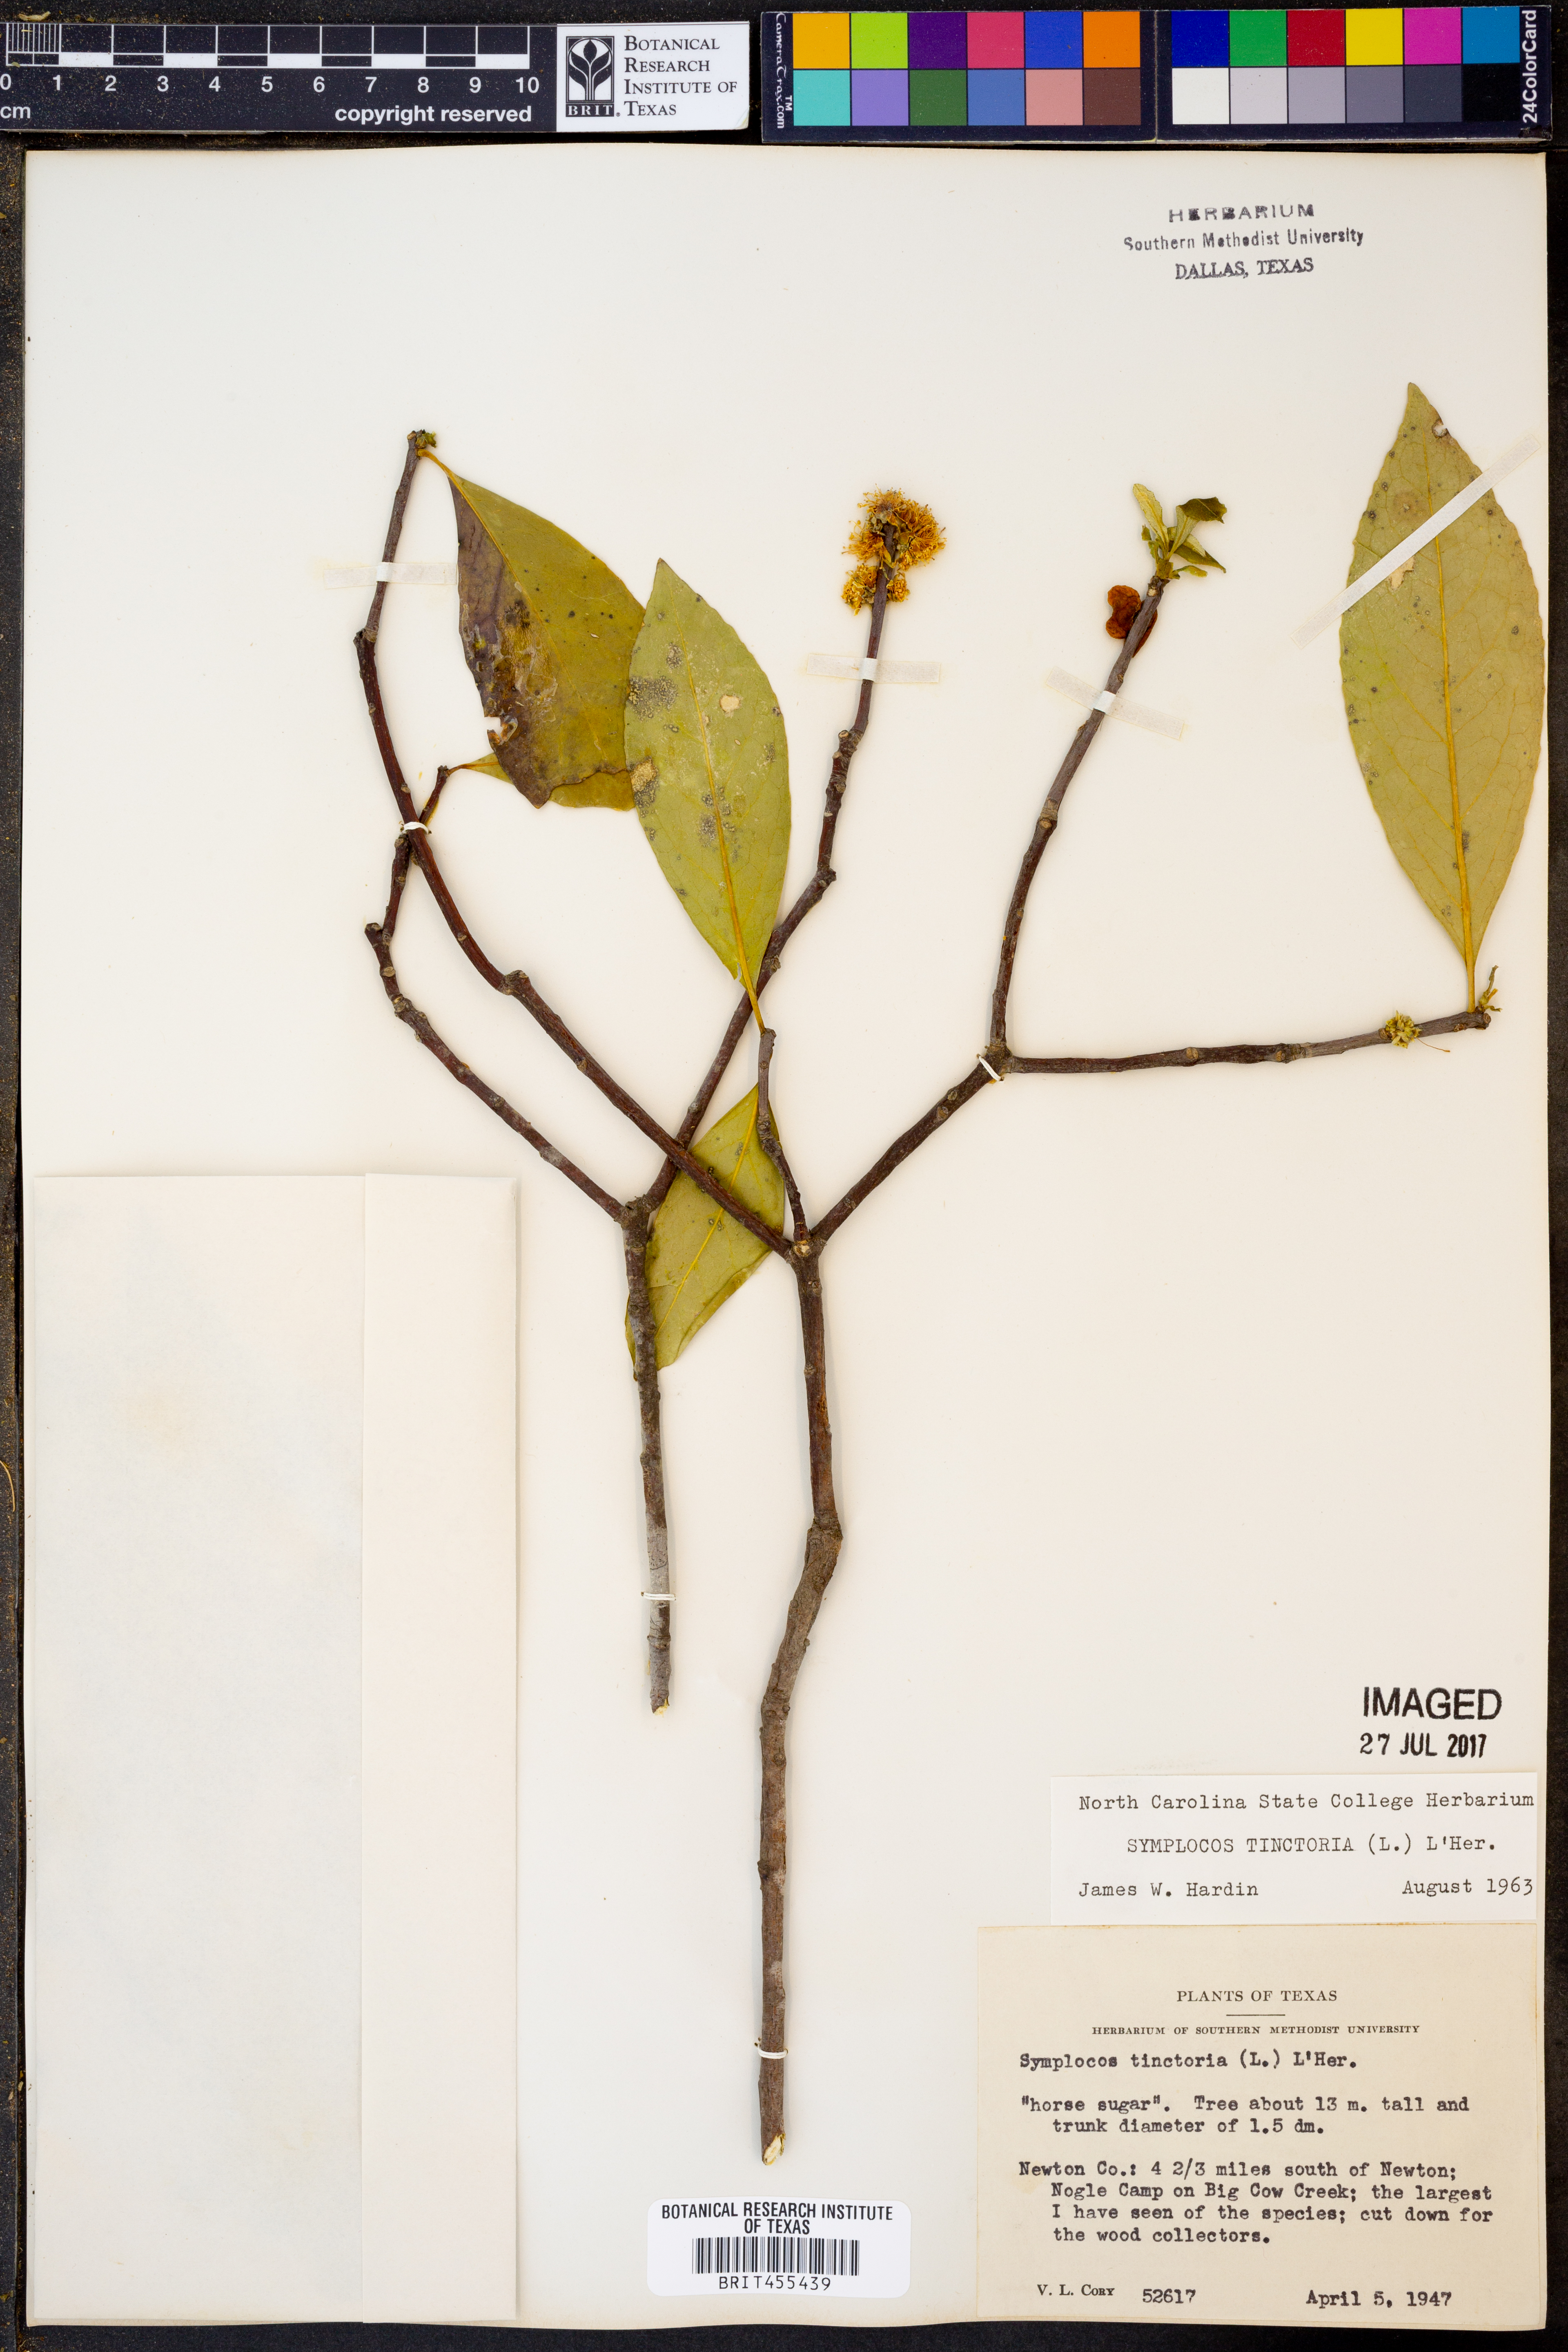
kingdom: Plantae
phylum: Tracheophyta
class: Magnoliopsida
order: Ericales
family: Symplocaceae
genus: Symplocos
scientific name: Symplocos tinctoria
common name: Horse-sugar
